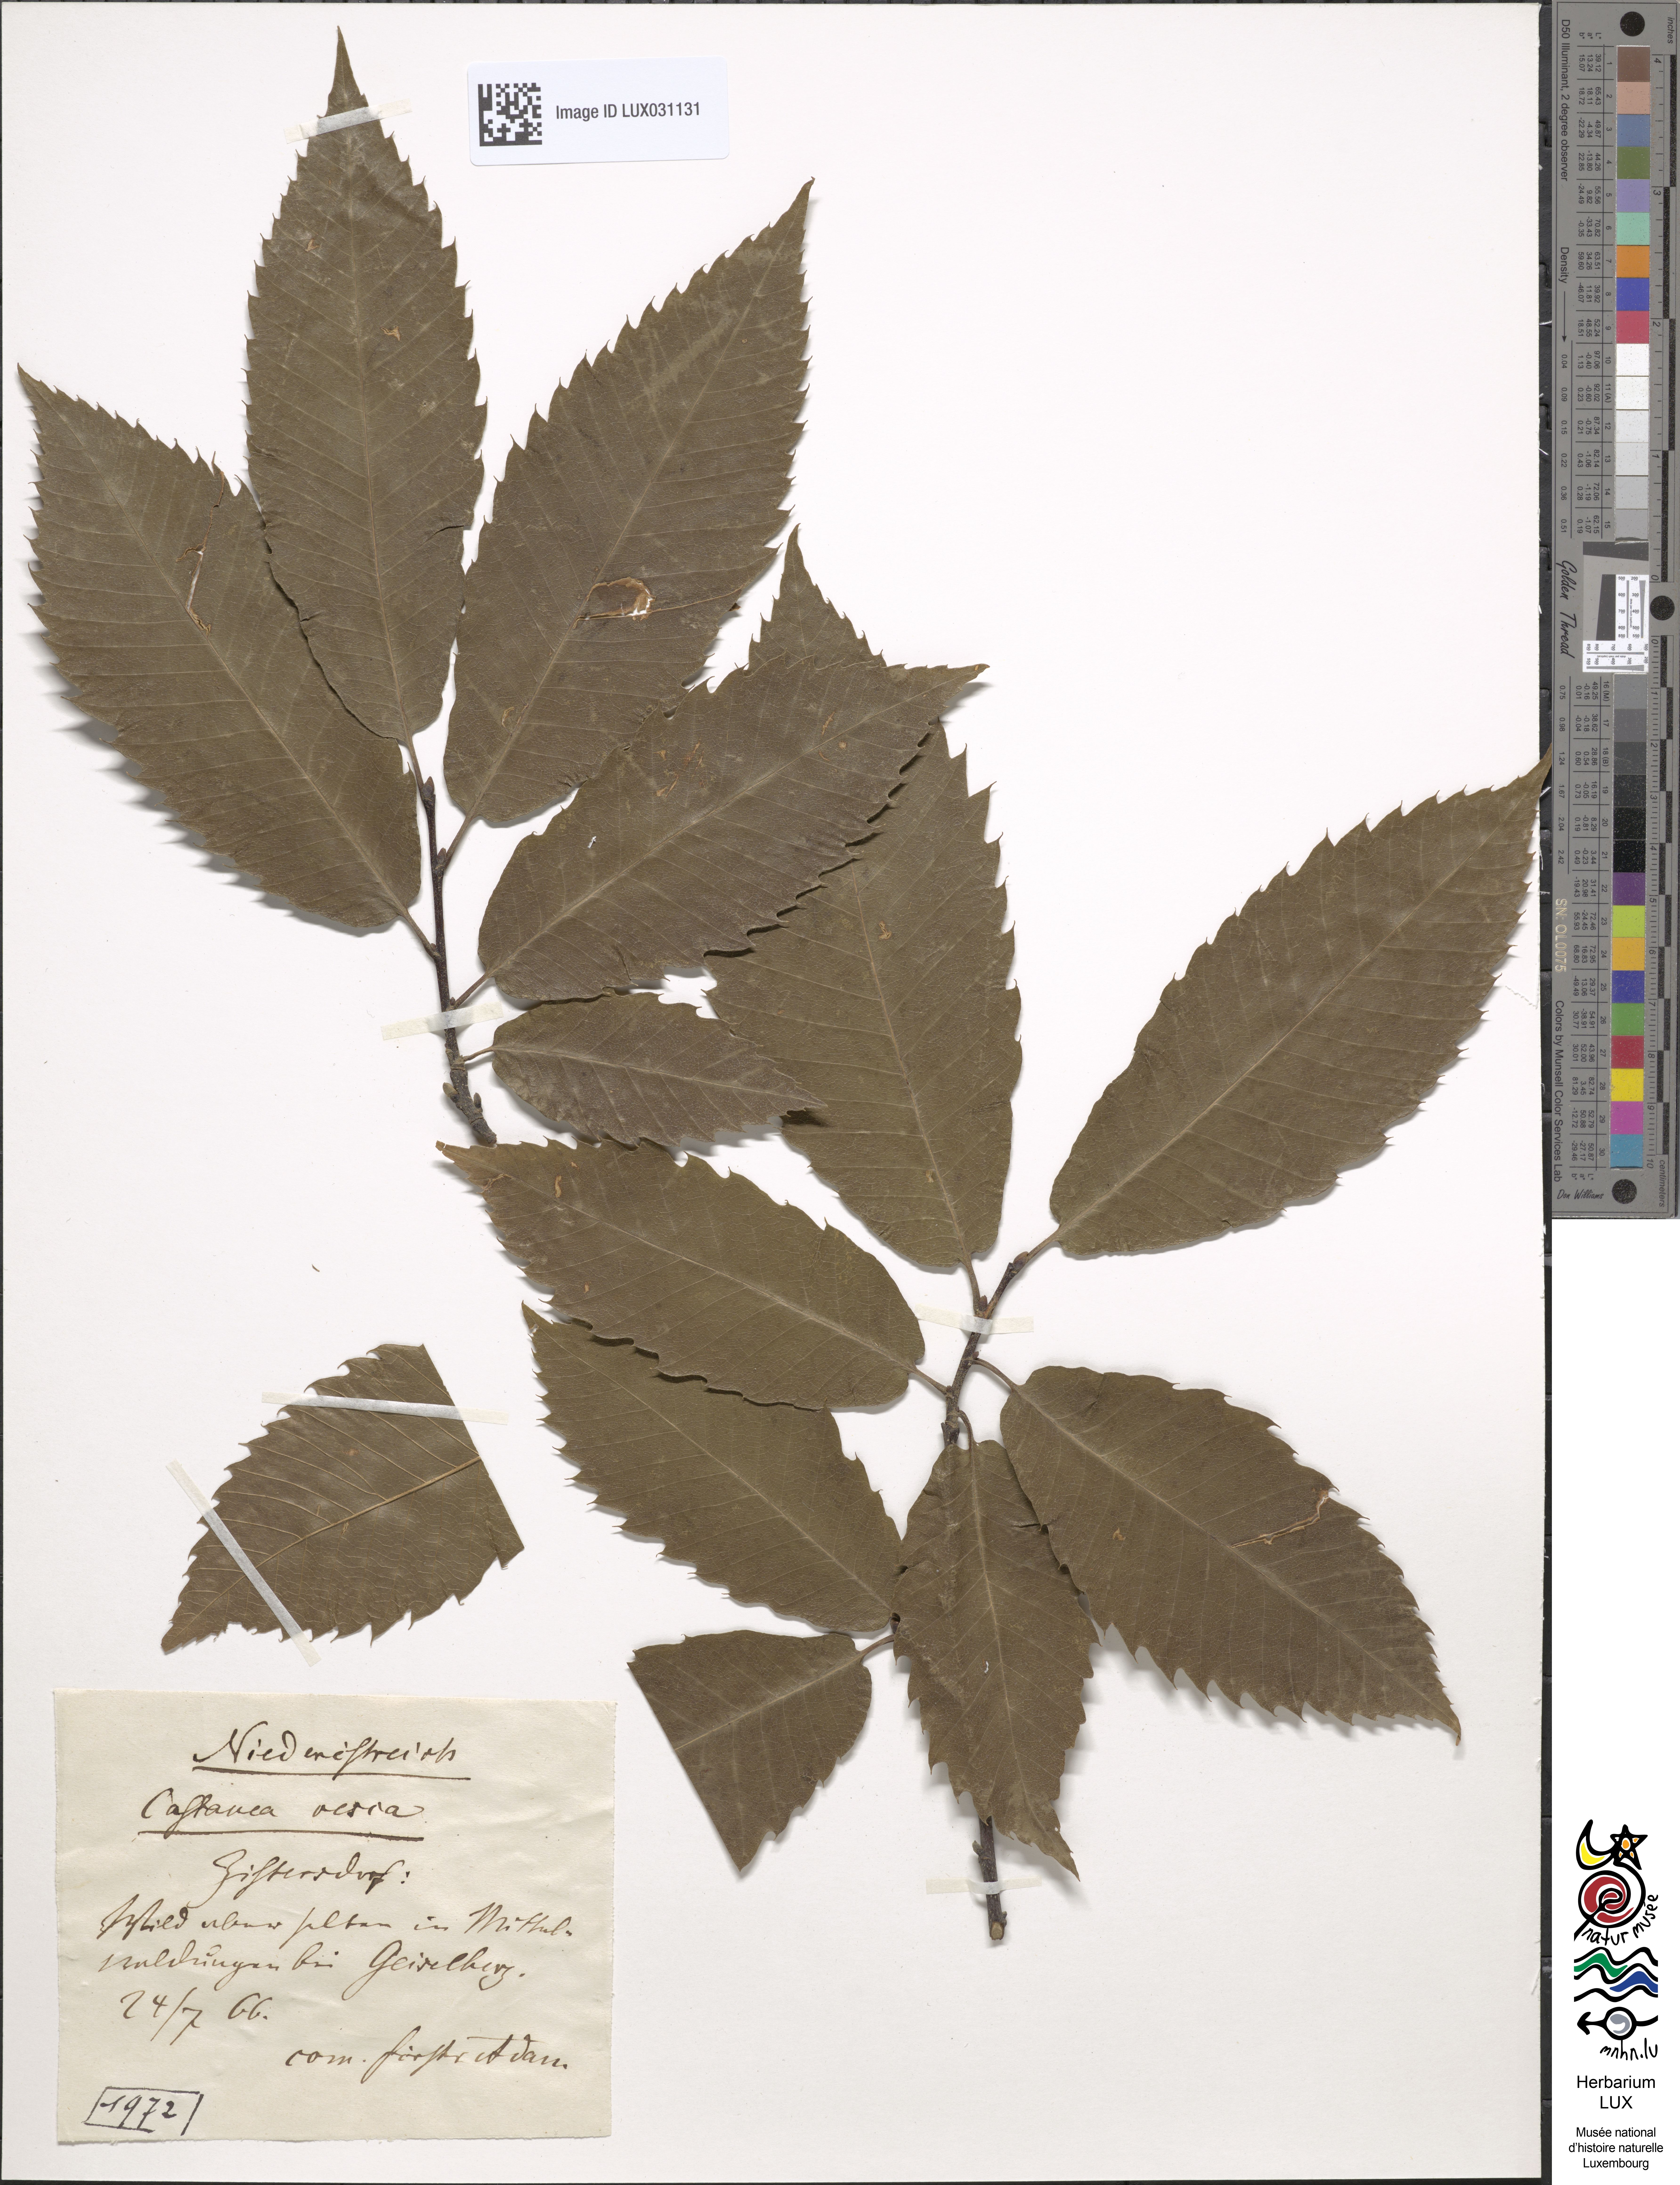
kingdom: Plantae
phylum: Tracheophyta
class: Magnoliopsida
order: Fagales
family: Fagaceae
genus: Castanea
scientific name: Castanea sativa
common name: Sweet chestnut
